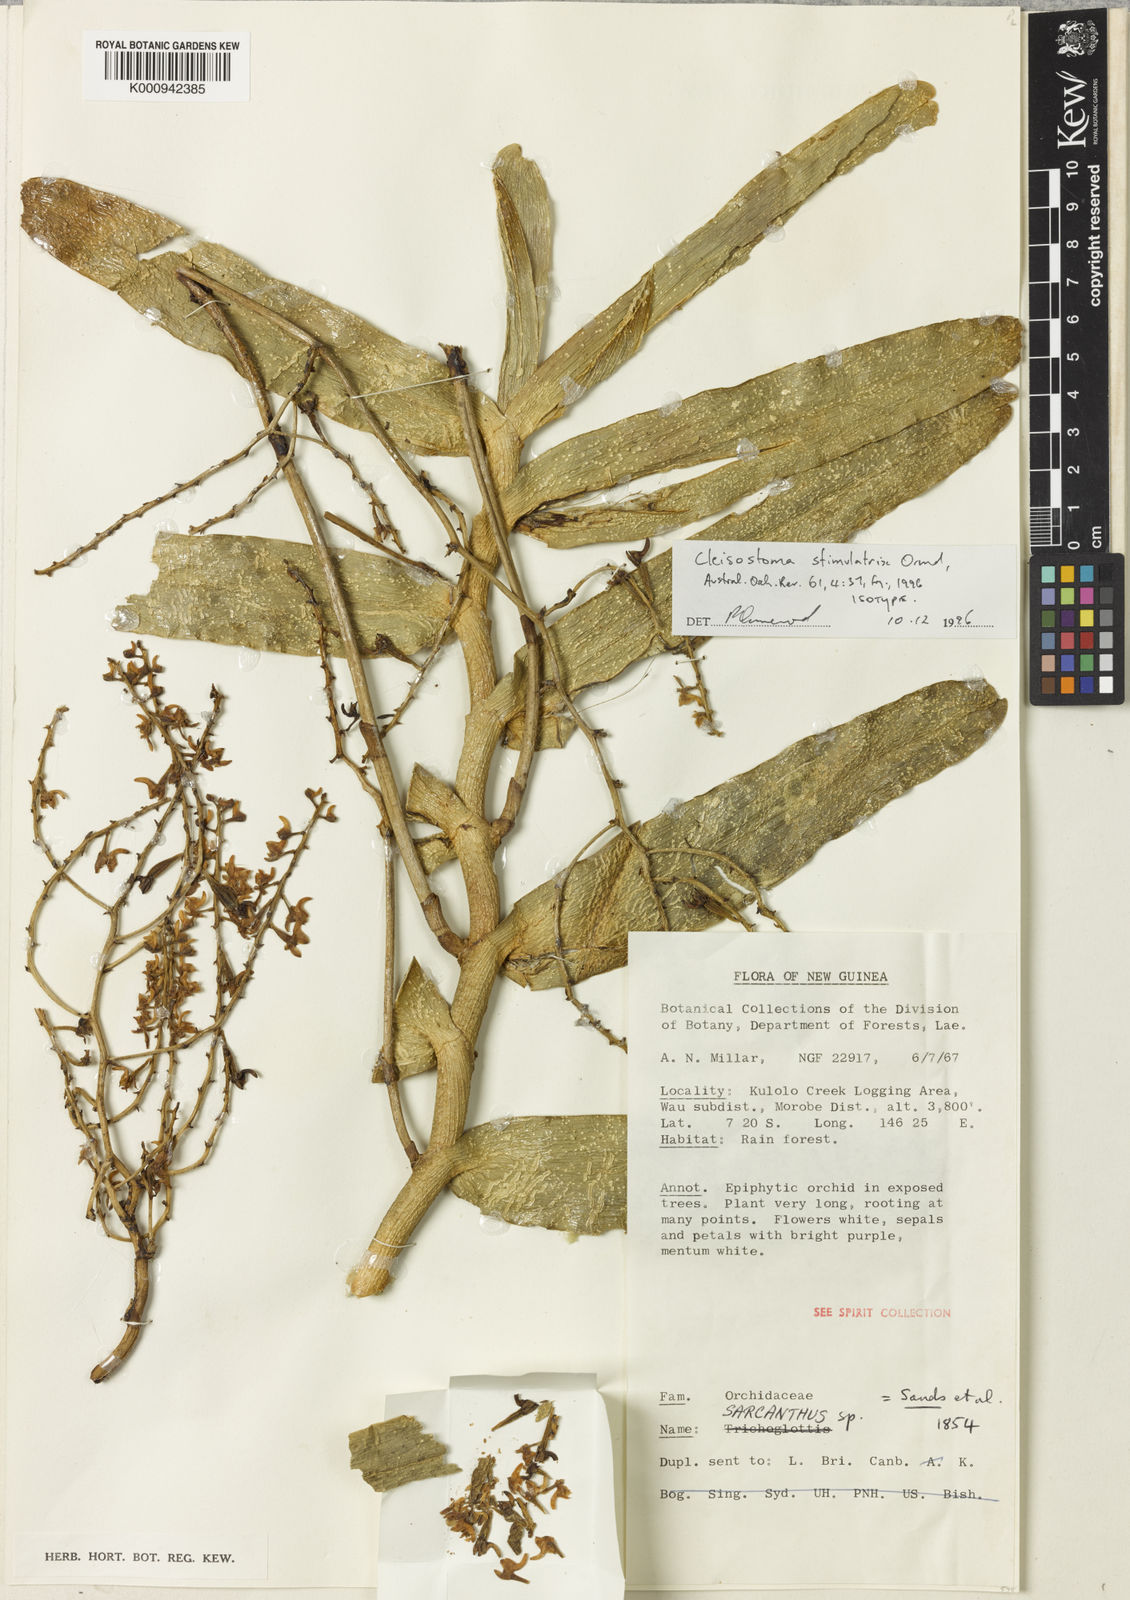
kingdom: Plantae
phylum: Tracheophyta
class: Liliopsida
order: Asparagales
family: Orchidaceae
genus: Cleisostoma
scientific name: Cleisostoma stimulatrix
